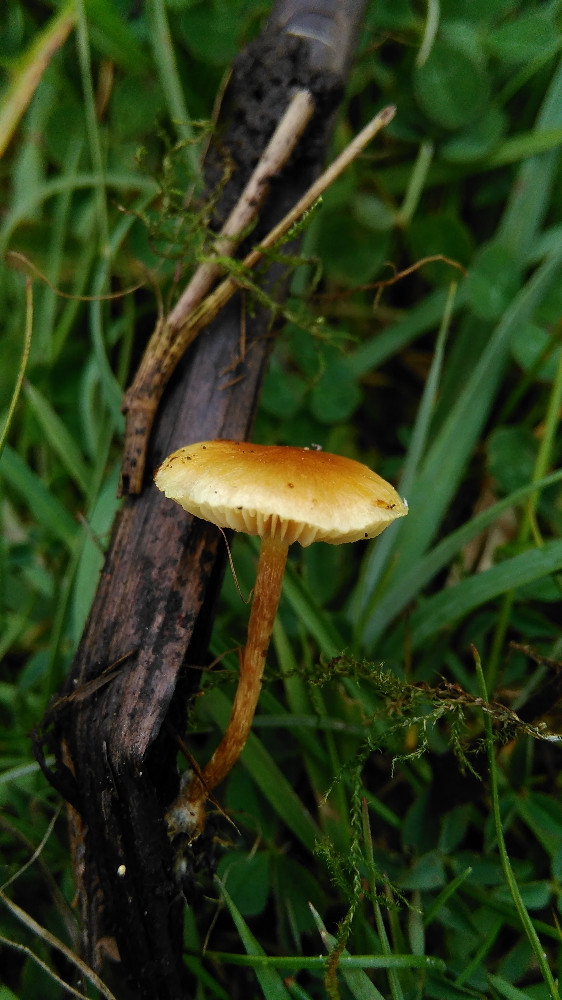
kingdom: Fungi
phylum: Basidiomycota
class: Agaricomycetes
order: Agaricales
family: Strophariaceae
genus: Pholiota
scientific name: Pholiota
